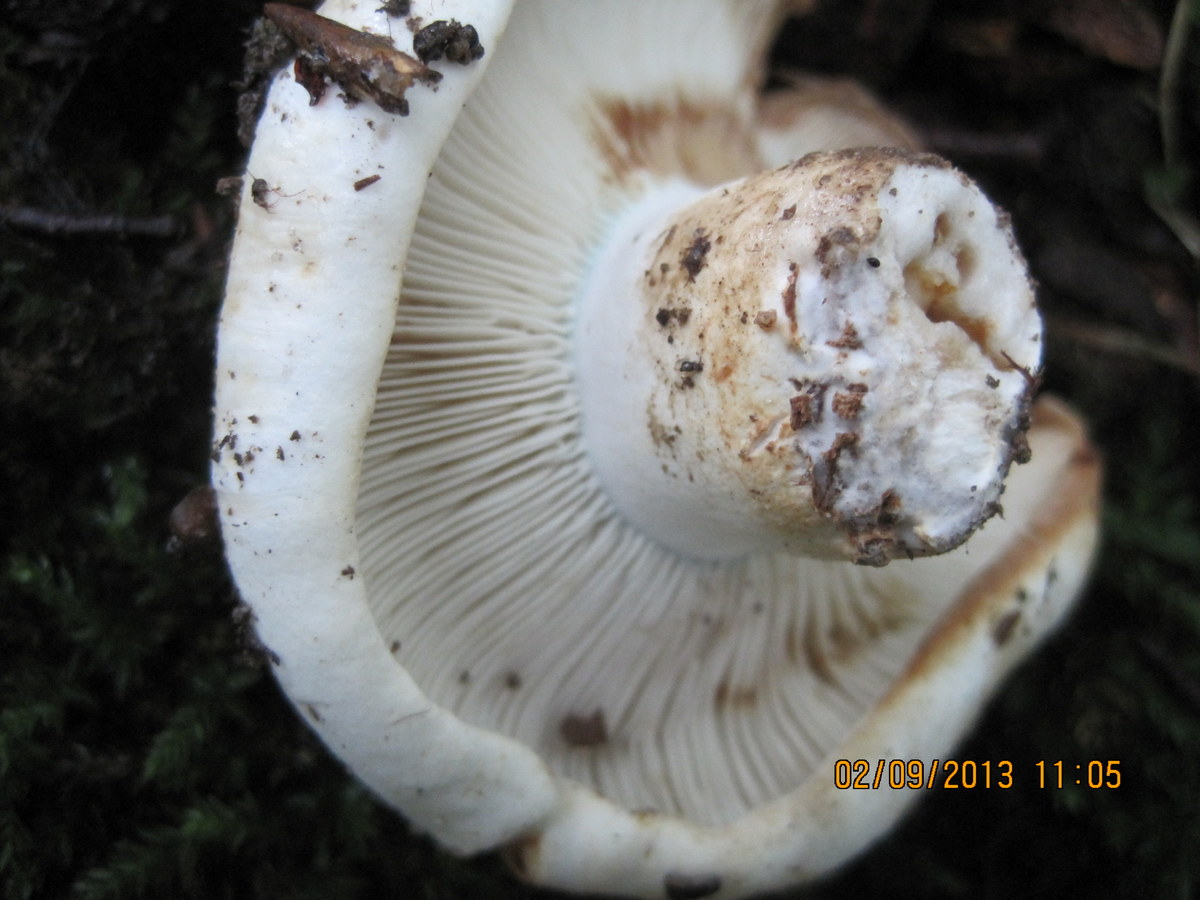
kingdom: Fungi
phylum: Basidiomycota
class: Agaricomycetes
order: Russulales
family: Russulaceae
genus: Russula
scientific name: Russula chloroides
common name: grønhalset tragt-skørhat
